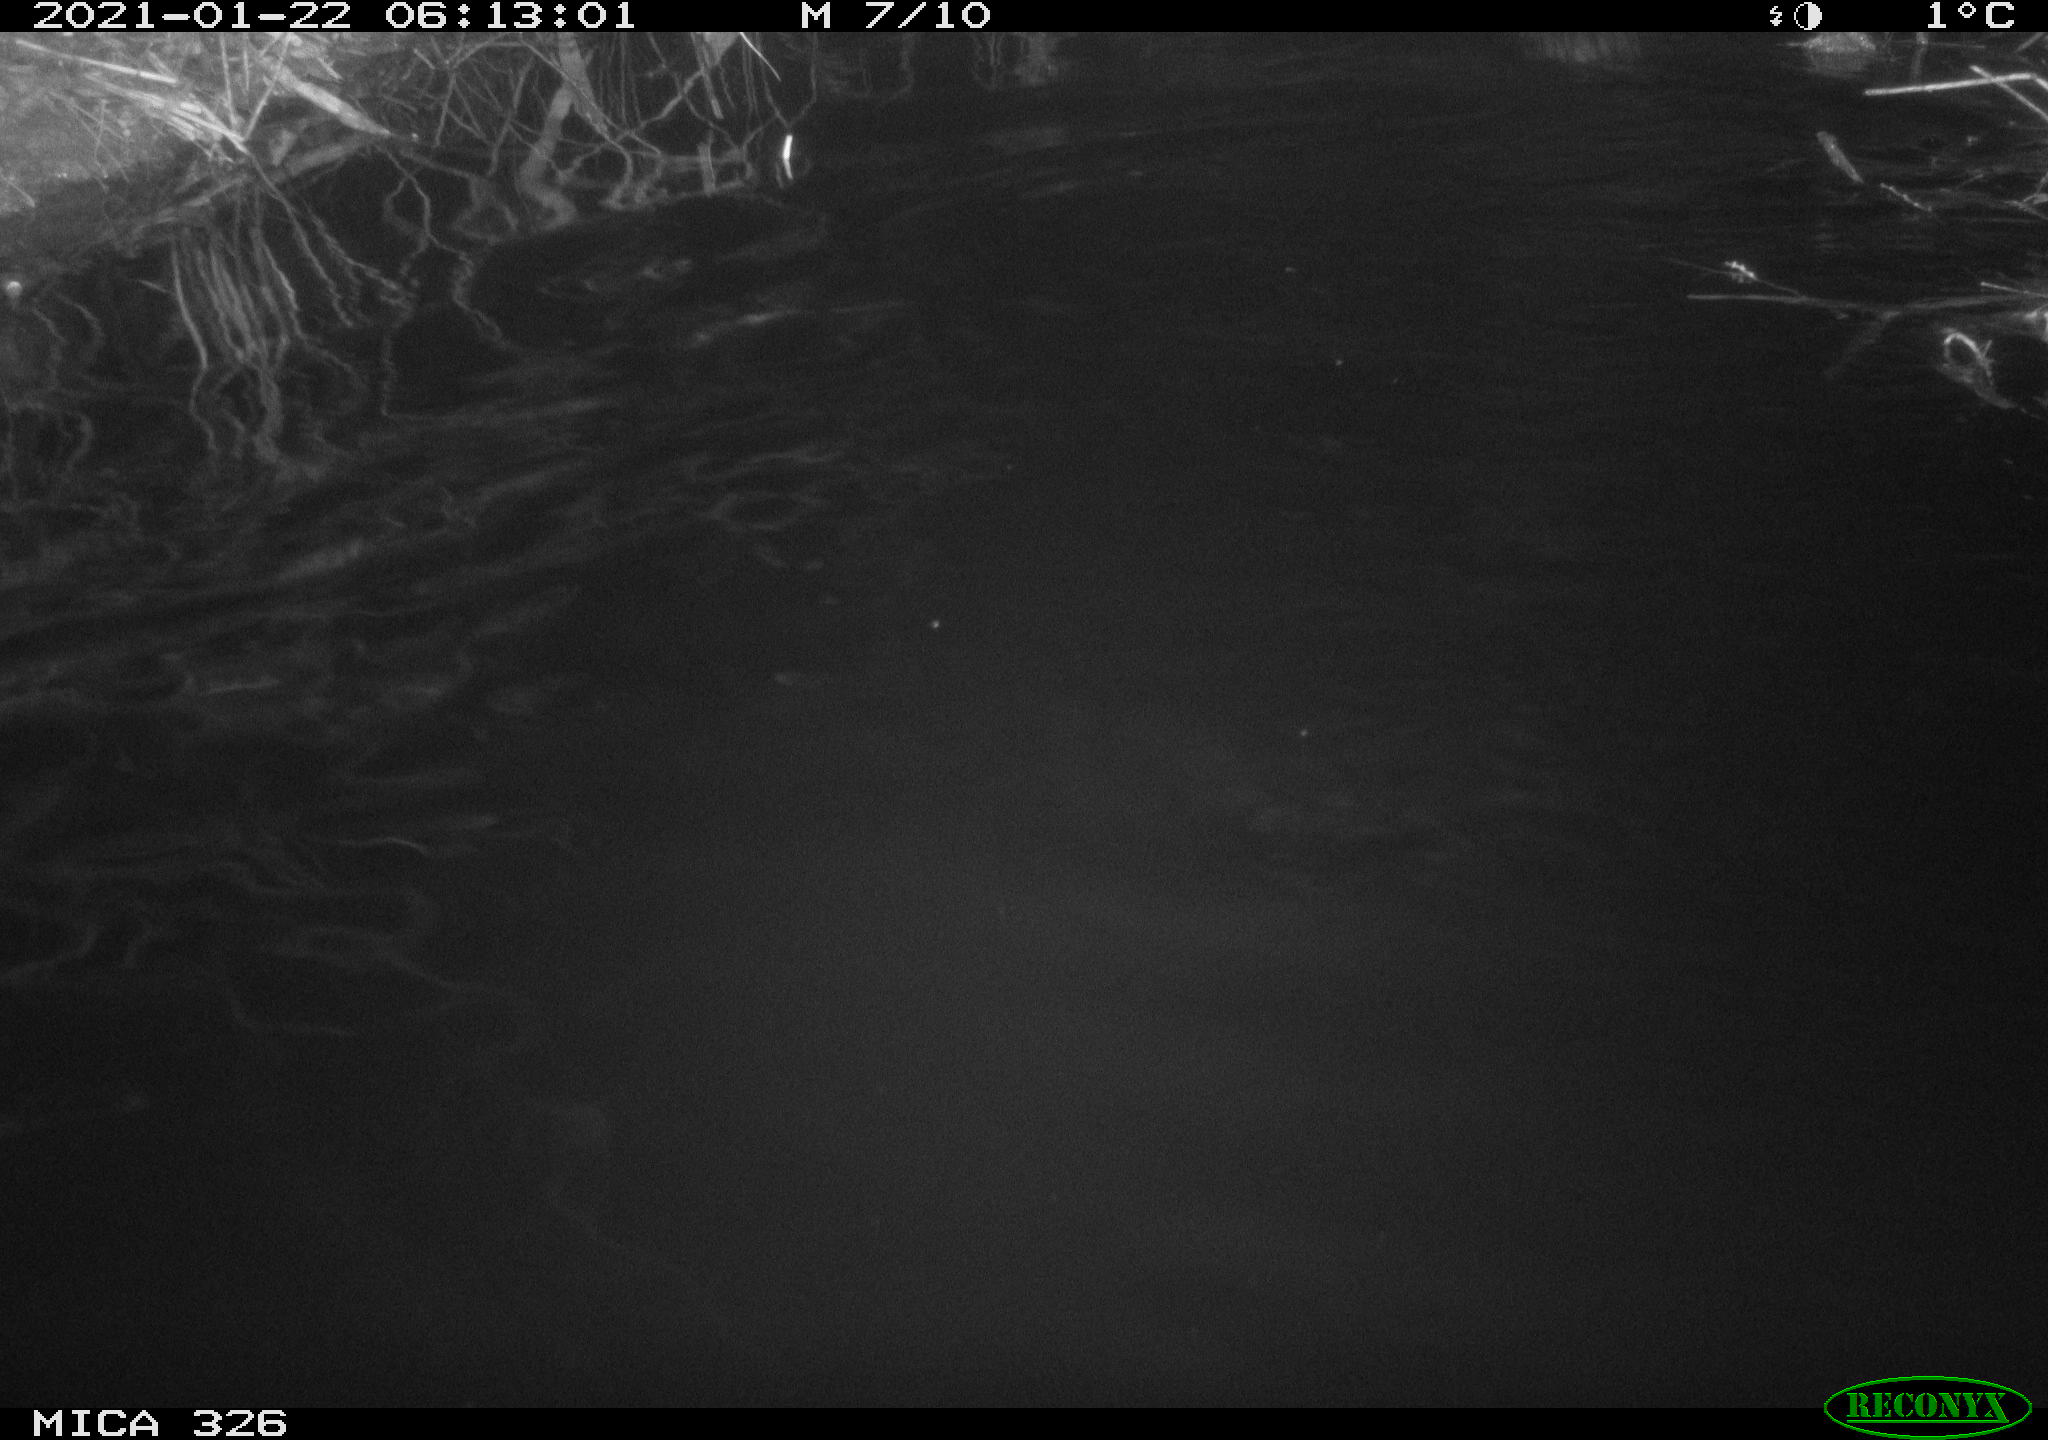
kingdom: Animalia
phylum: Chordata
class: Mammalia
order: Rodentia
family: Myocastoridae
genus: Myocastor
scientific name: Myocastor coypus
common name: Coypu
